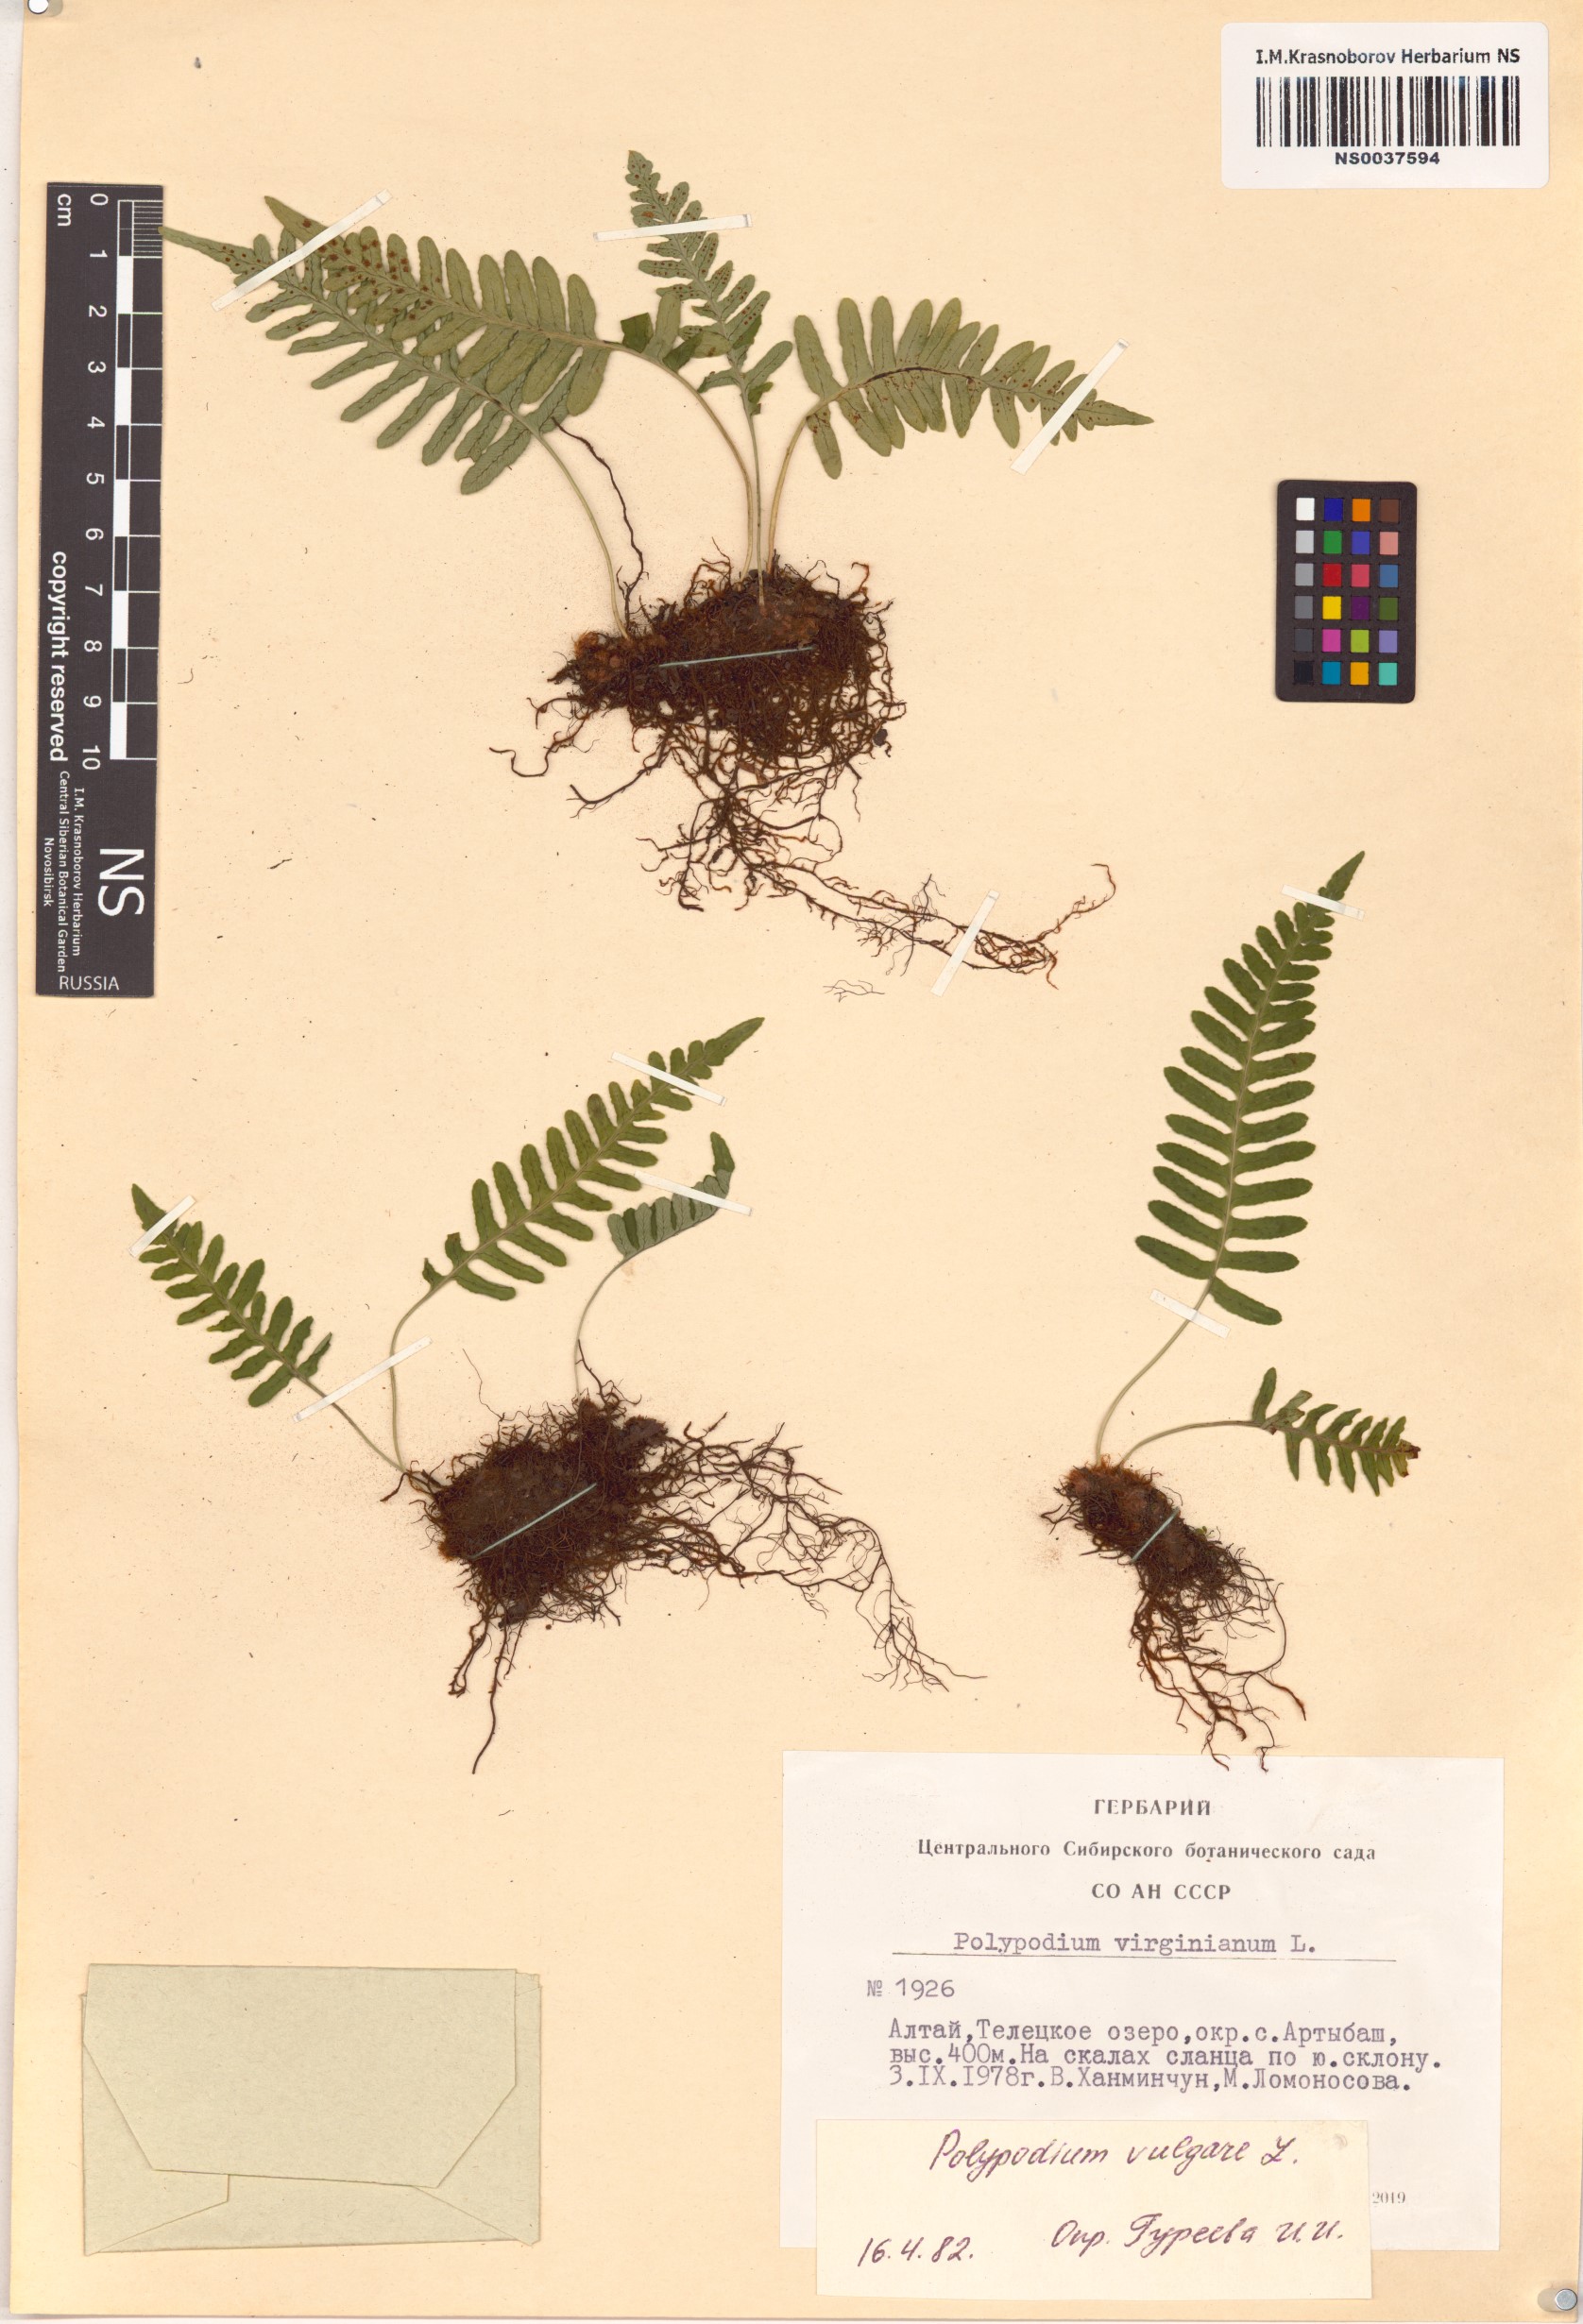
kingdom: Plantae
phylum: Tracheophyta
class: Polypodiopsida
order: Polypodiales
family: Polypodiaceae
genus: Polypodium
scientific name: Polypodium vulgare
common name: Common polypody
